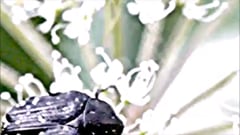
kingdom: Animalia
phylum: Arthropoda
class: Insecta
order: Coleoptera
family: Scarabaeidae
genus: Oxythyrea
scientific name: Oxythyrea funesta
